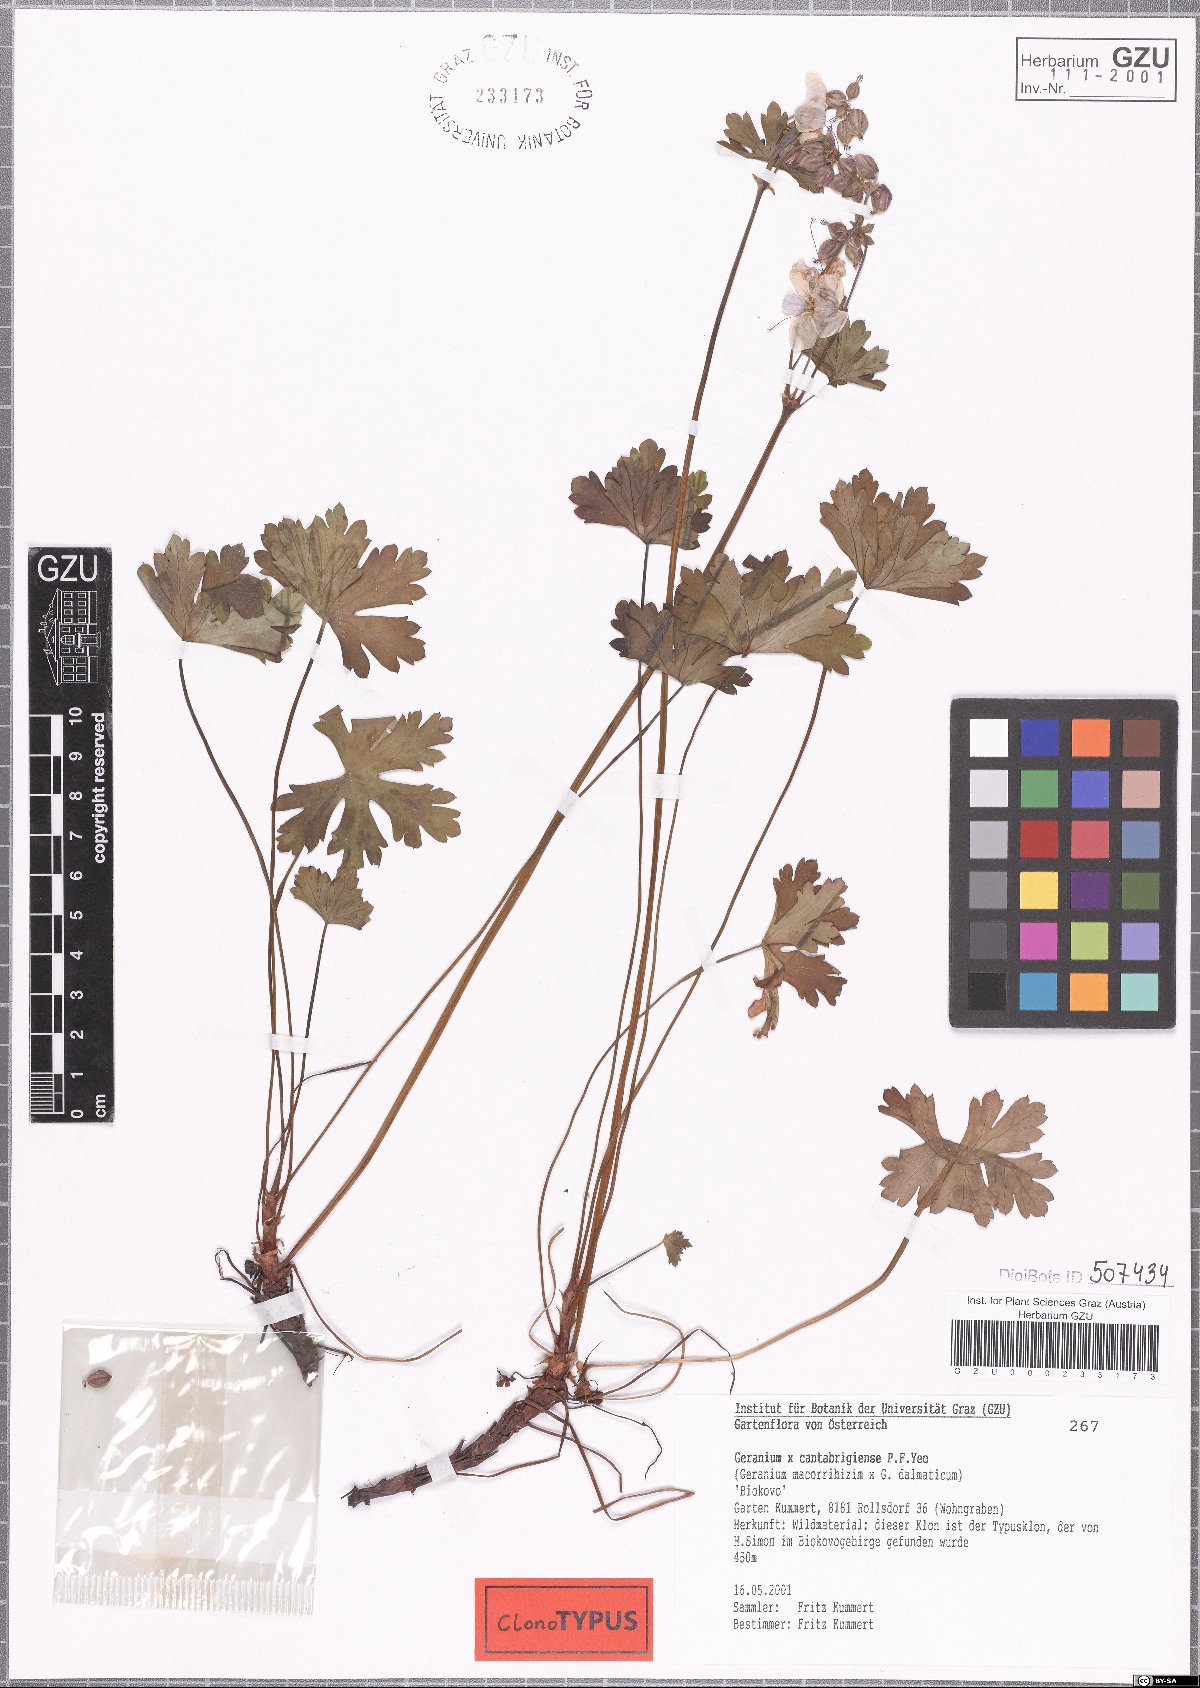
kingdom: Plantae
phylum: Tracheophyta
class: Magnoliopsida
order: Geraniales
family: Geraniaceae
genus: Geranium
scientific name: Geranium cantabrigiense
